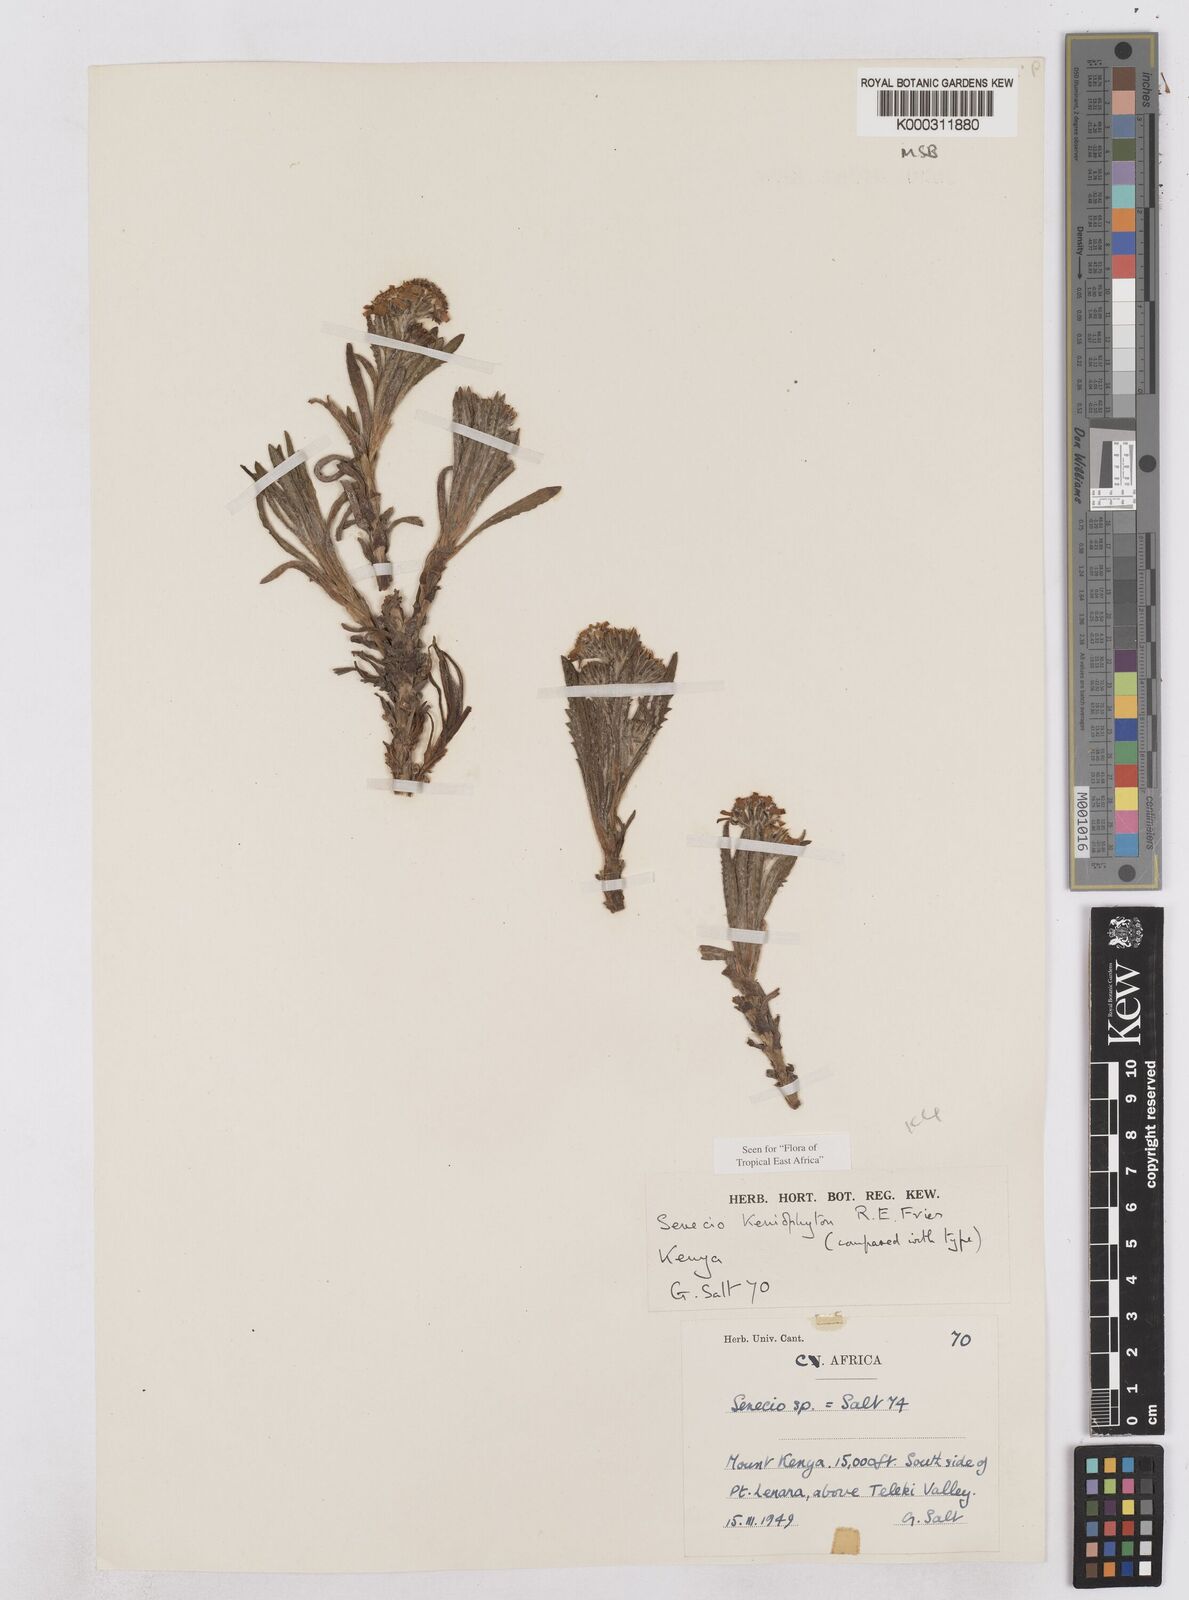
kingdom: Plantae
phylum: Tracheophyta
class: Magnoliopsida
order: Asterales
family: Asteraceae
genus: Senecio
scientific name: Senecio keniophytum
